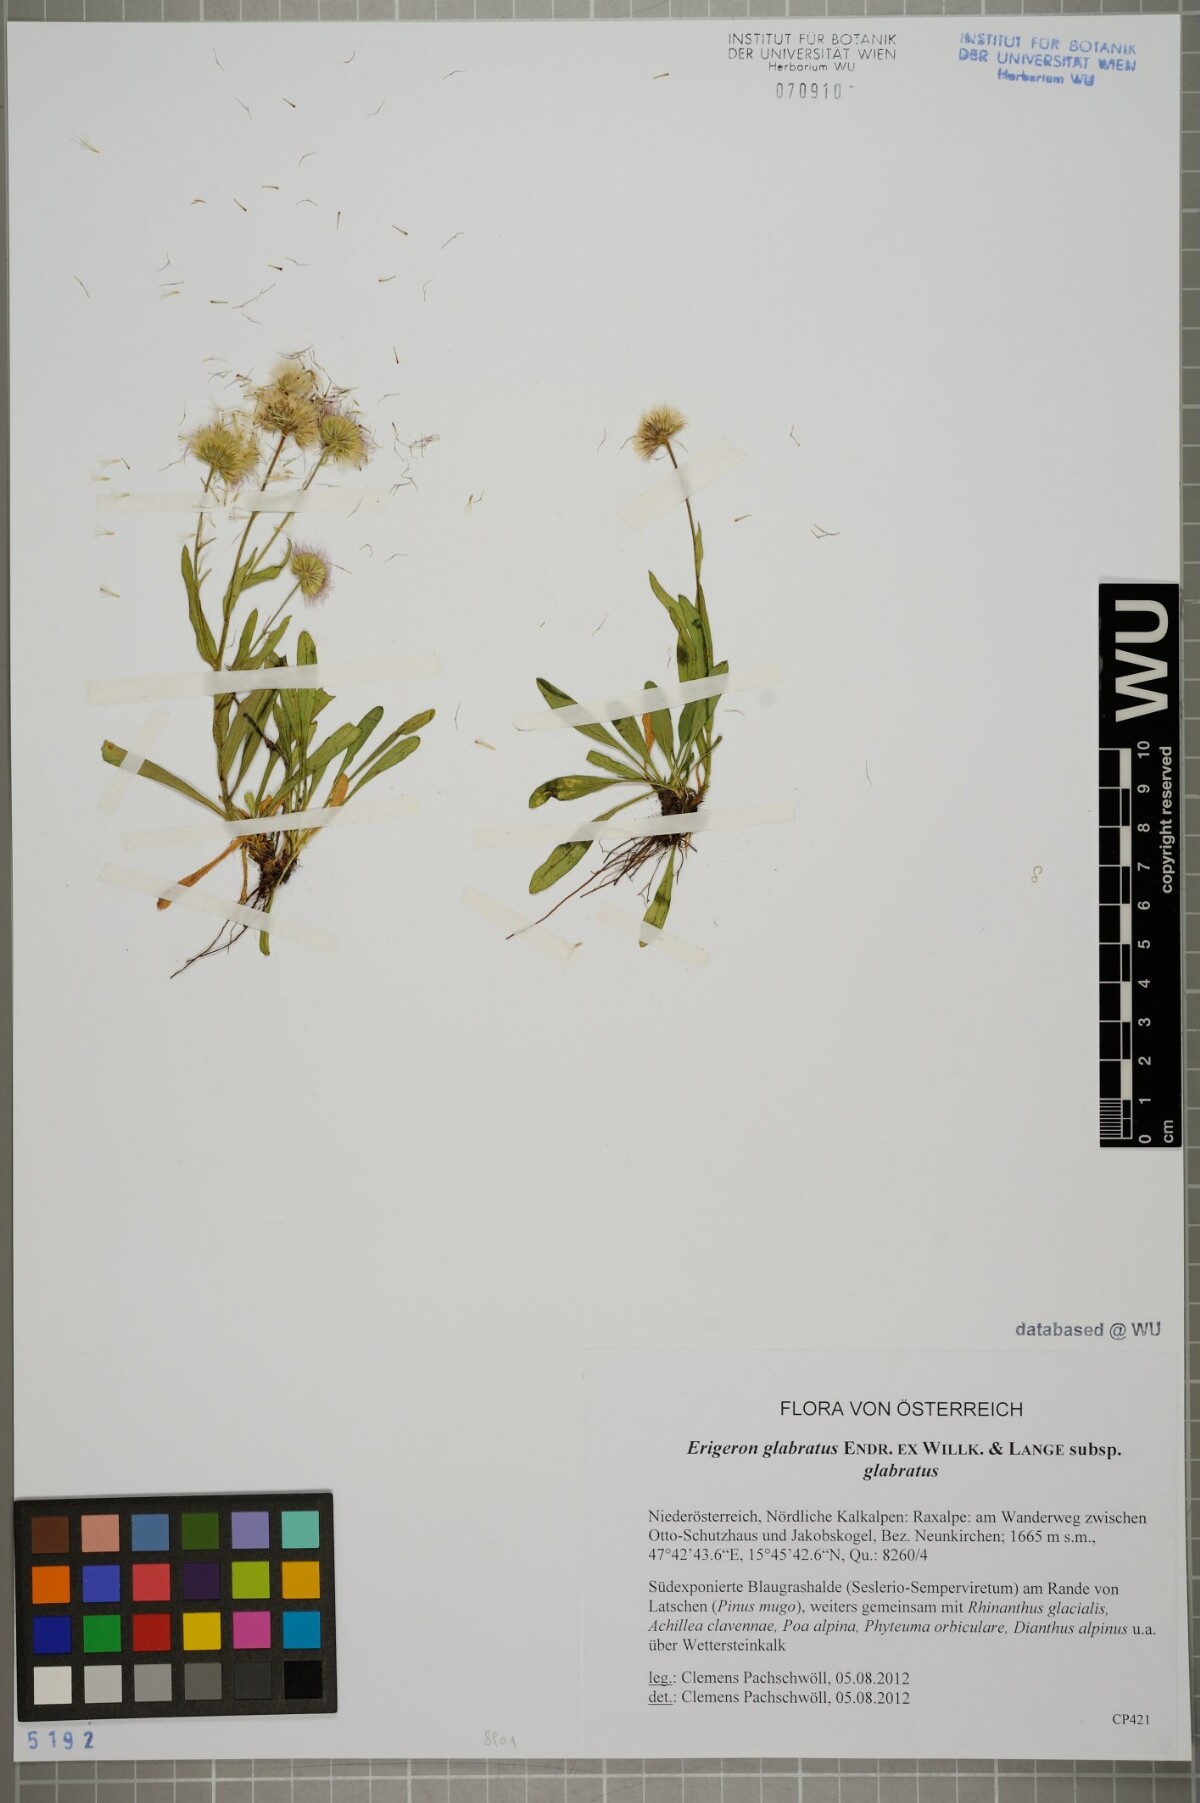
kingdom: Plantae
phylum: Tracheophyta
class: Magnoliopsida
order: Asterales
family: Asteraceae
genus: Erigeron
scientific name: Erigeron glabratus
